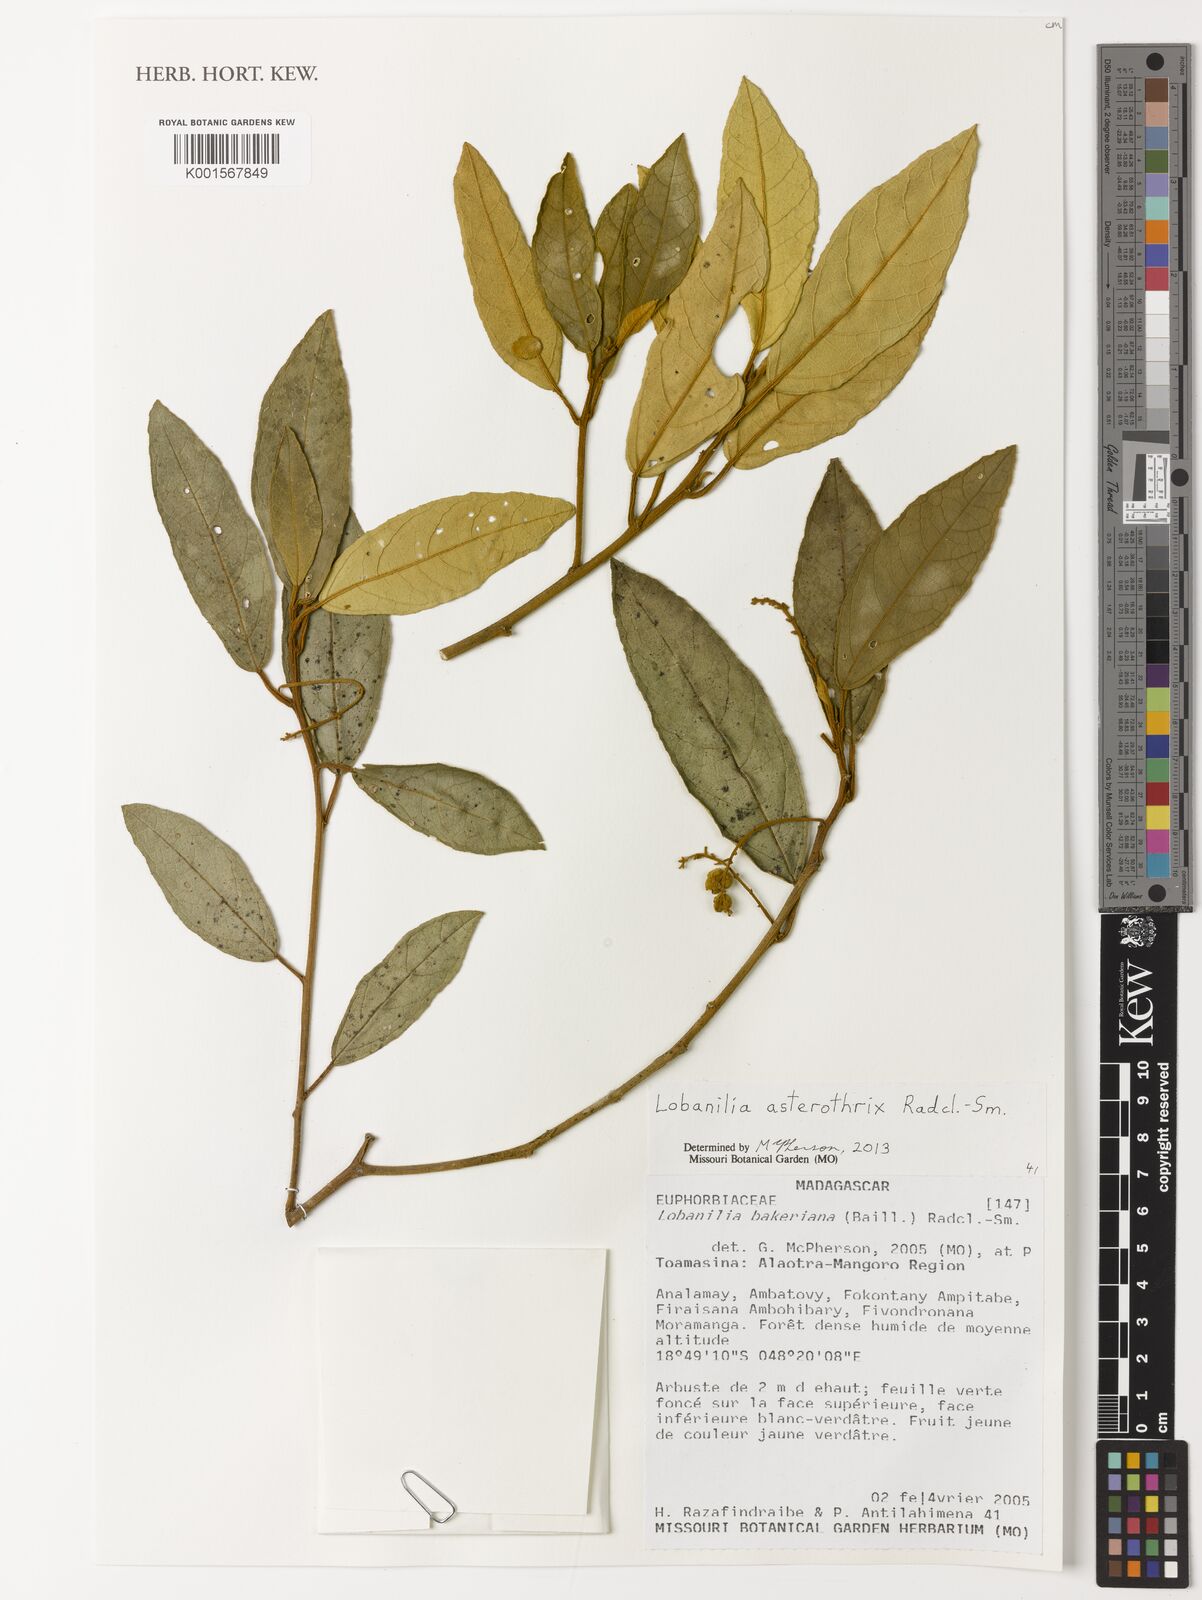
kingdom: Plantae
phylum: Tracheophyta
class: Magnoliopsida
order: Malpighiales
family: Euphorbiaceae
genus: Lobanilia
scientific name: Lobanilia asterothrix
